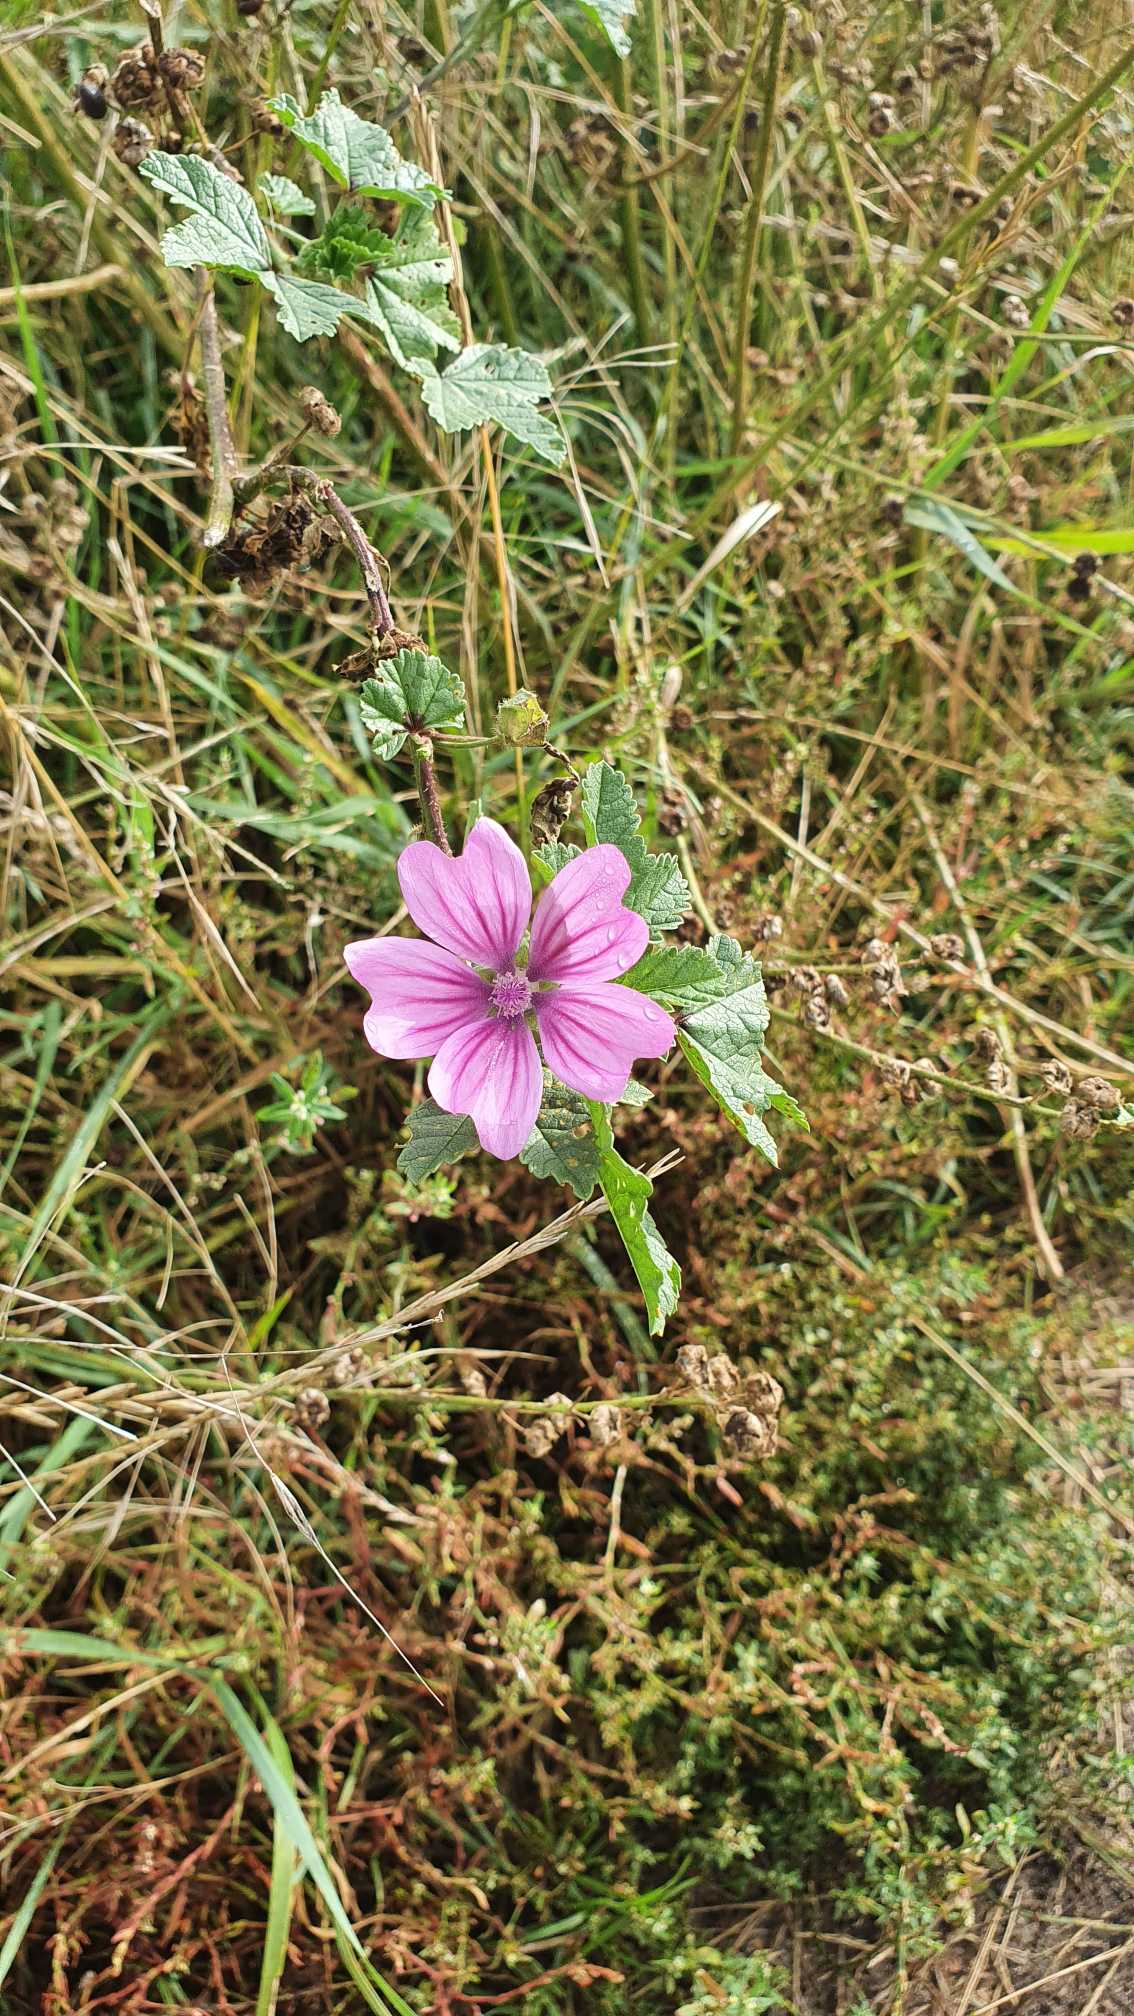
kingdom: Plantae
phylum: Tracheophyta
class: Magnoliopsida
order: Malvales
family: Malvaceae
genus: Malva
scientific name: Malva
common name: Katostslægten
